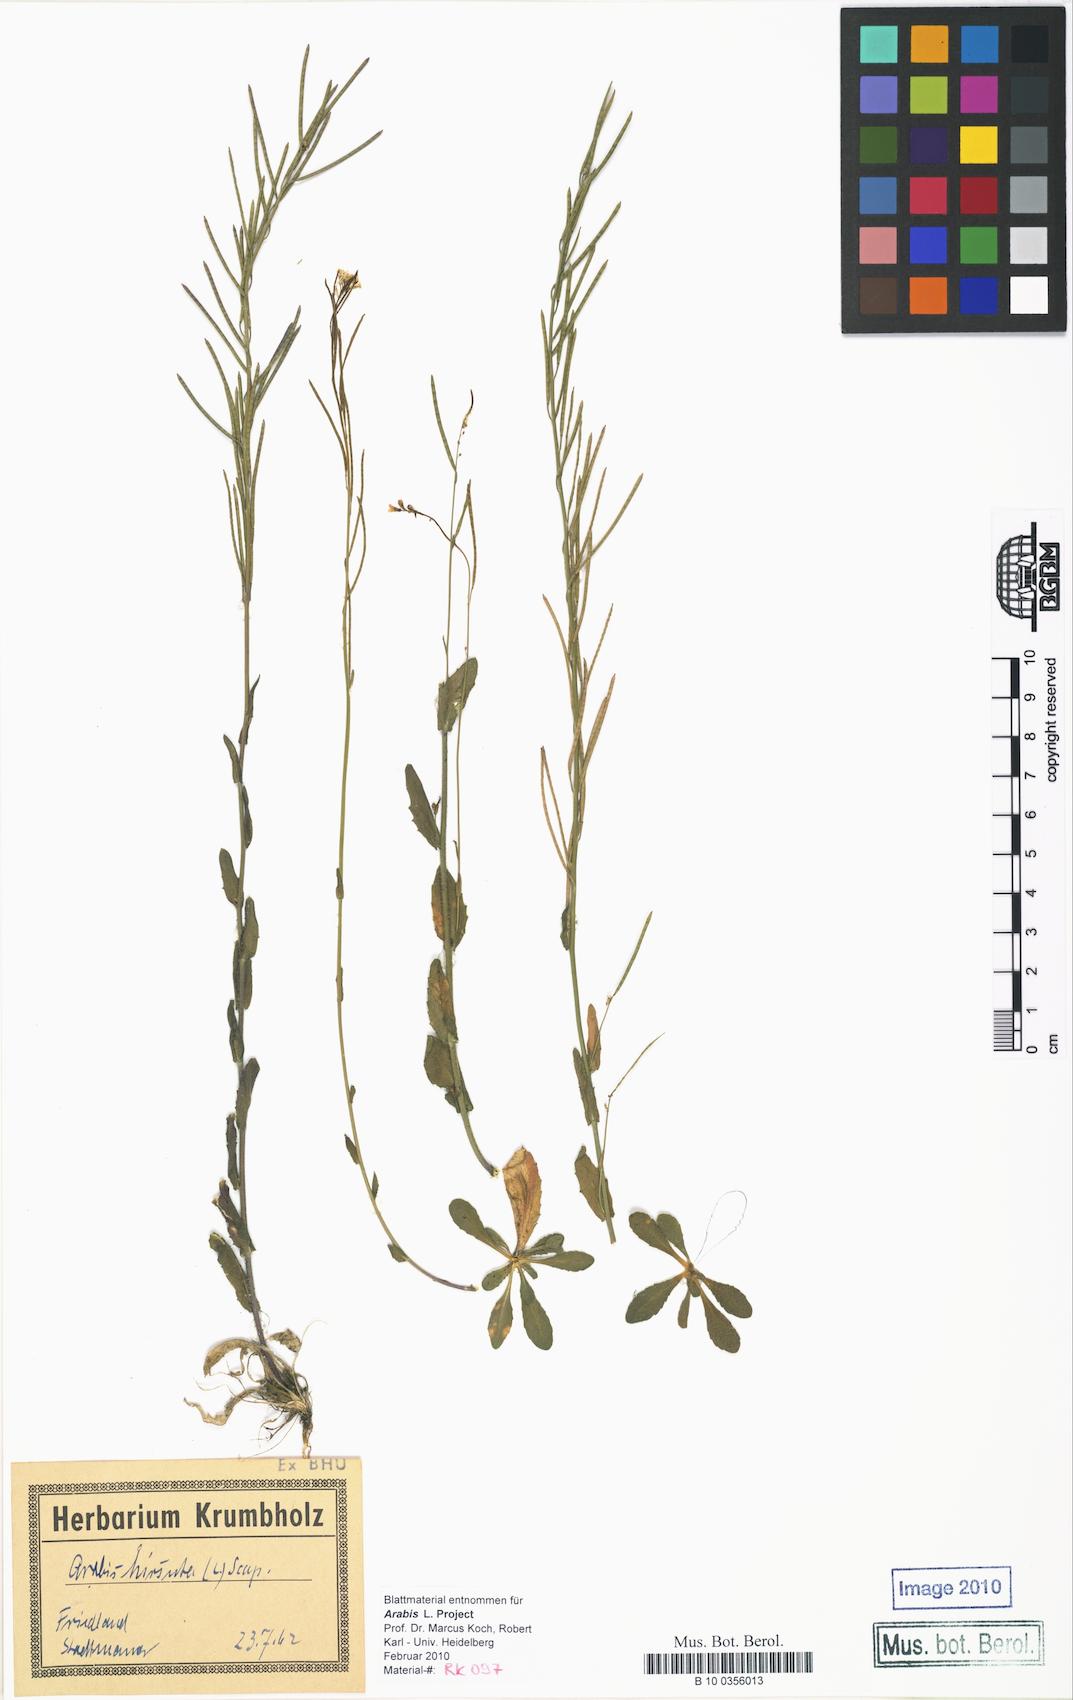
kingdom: Plantae
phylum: Tracheophyta
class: Magnoliopsida
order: Brassicales
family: Brassicaceae
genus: Arabis
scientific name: Arabis hirsuta
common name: Hairy rock-cress
